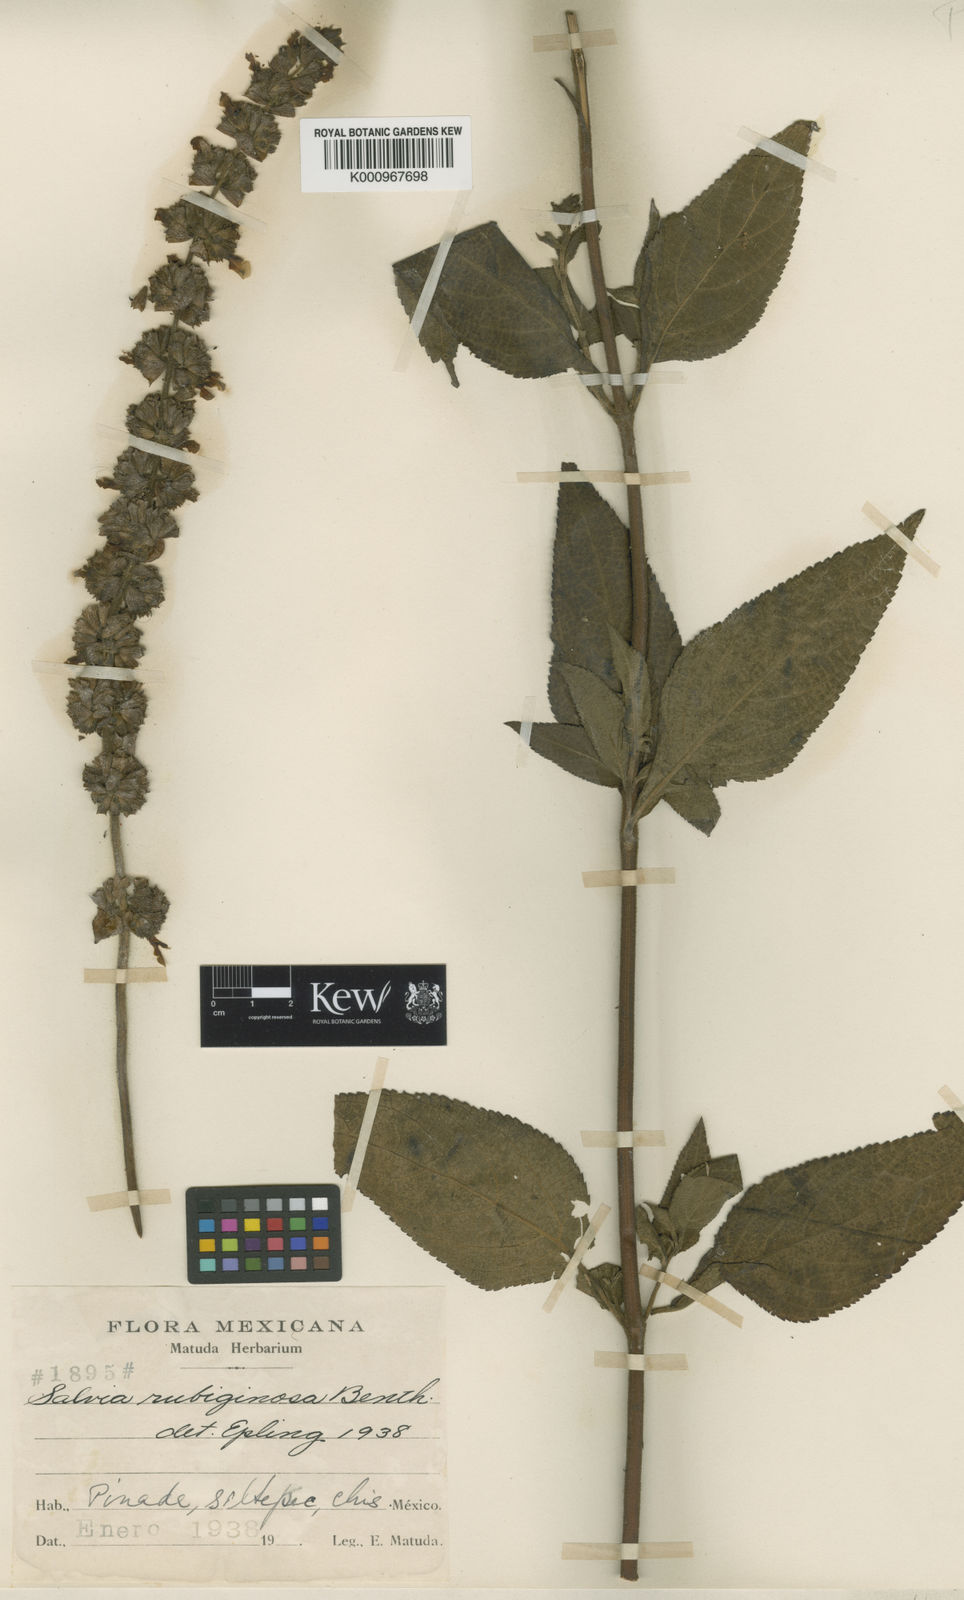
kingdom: Plantae
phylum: Tracheophyta
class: Magnoliopsida
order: Lamiales
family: Lamiaceae
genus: Salvia
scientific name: Salvia mocinoi
